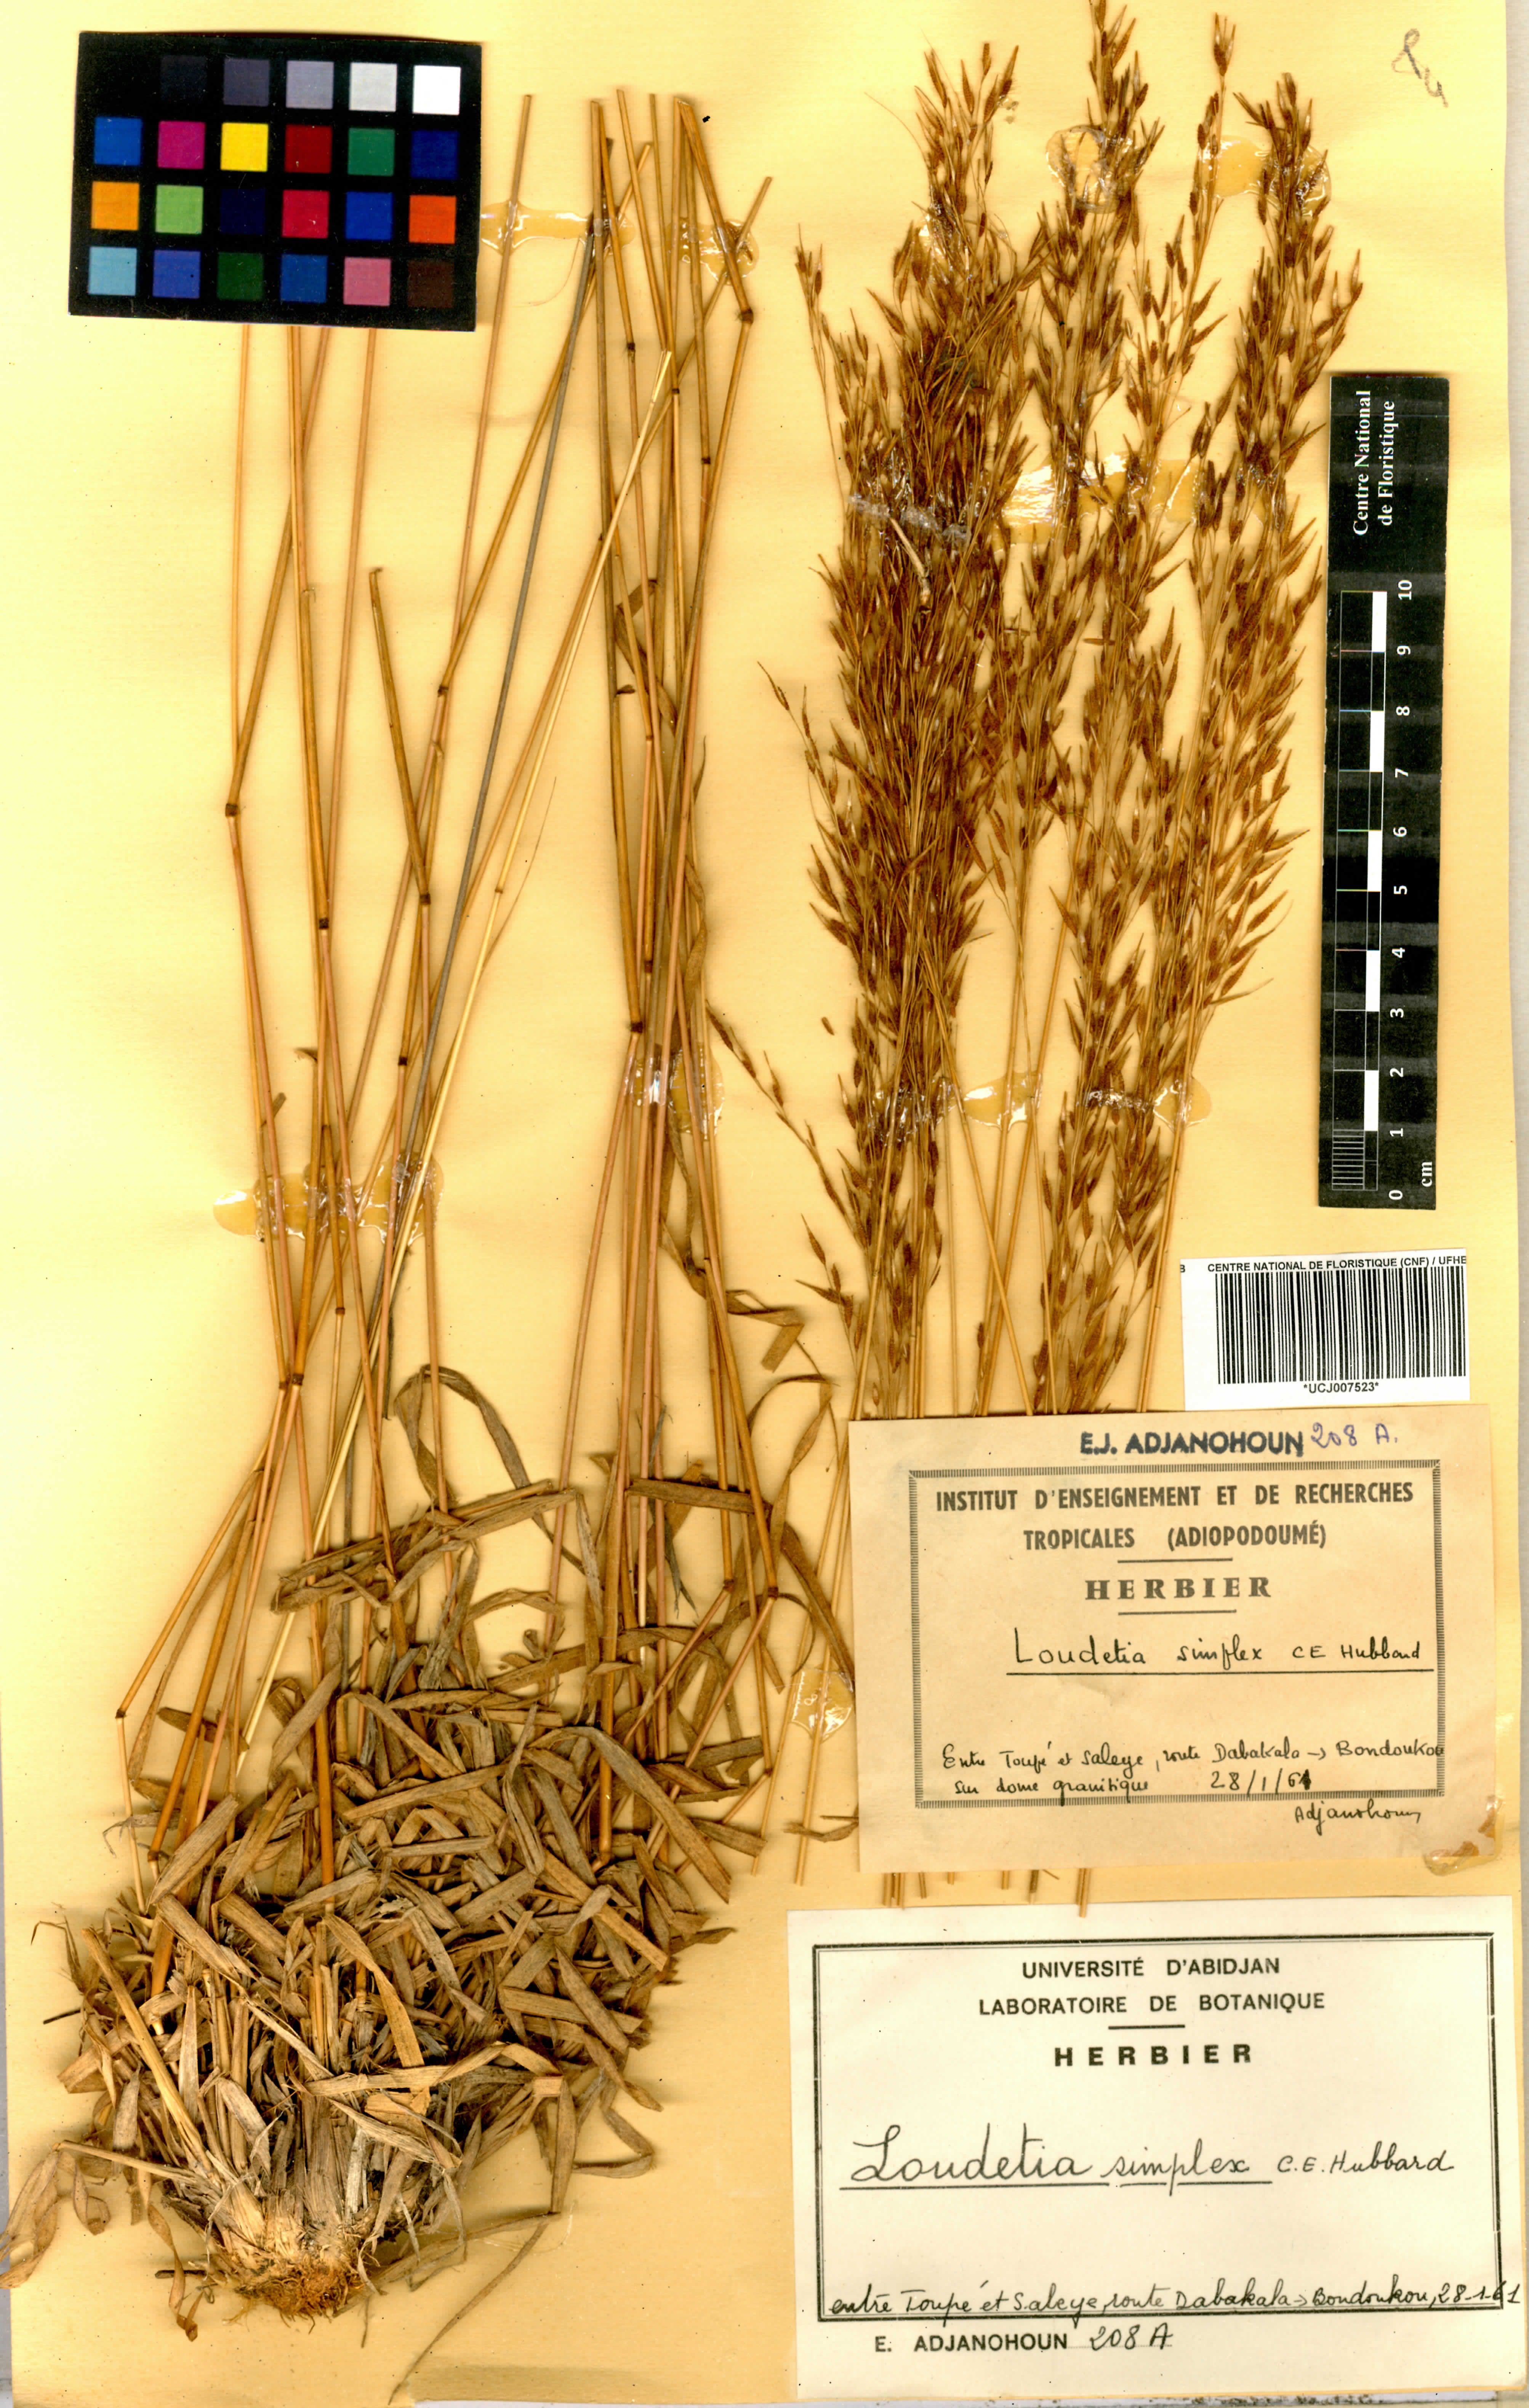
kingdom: Plantae
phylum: Tracheophyta
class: Liliopsida
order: Poales
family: Poaceae
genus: Loudetia
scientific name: Loudetia simplex
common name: Common russet grass
